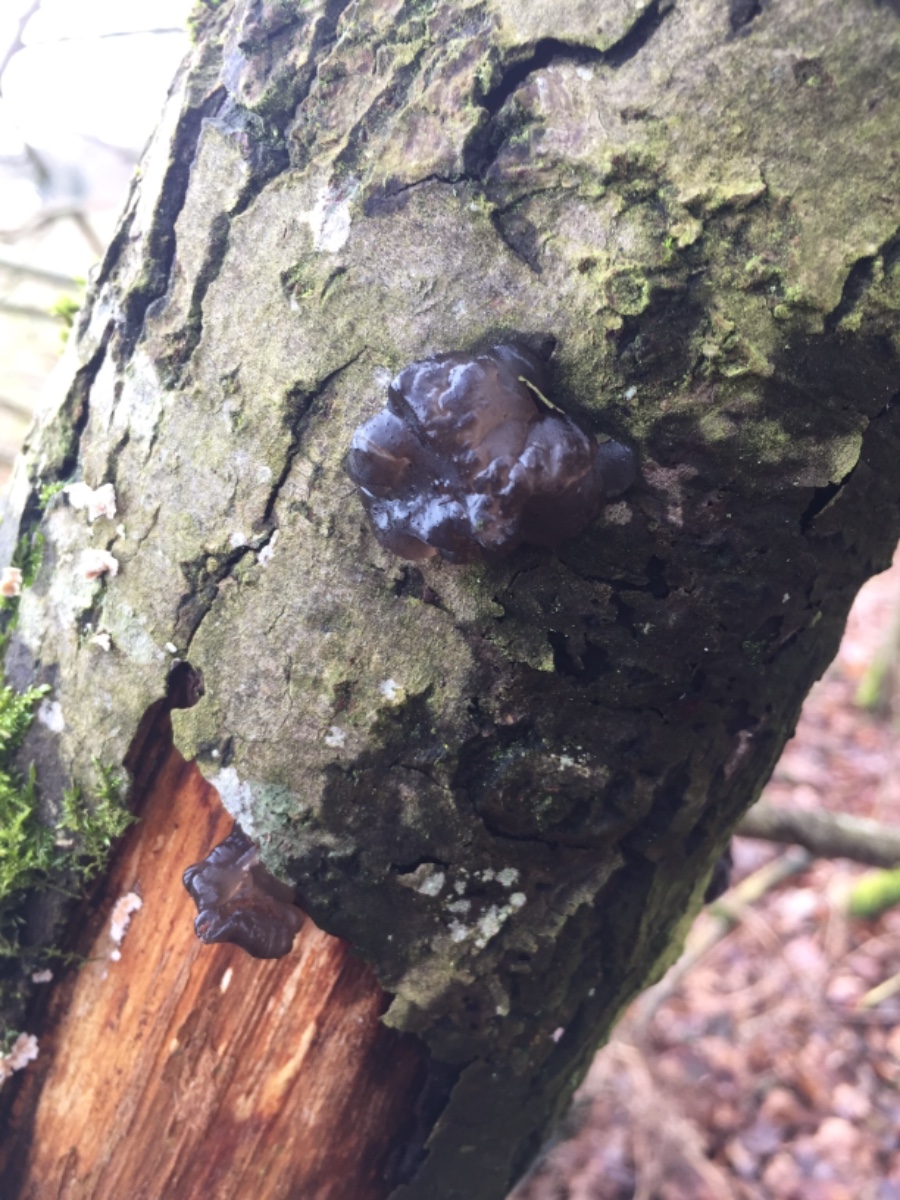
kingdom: Fungi
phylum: Basidiomycota
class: Tremellomycetes
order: Tremellales
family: Exidiaceae
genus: Exidia
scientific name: Exidia
